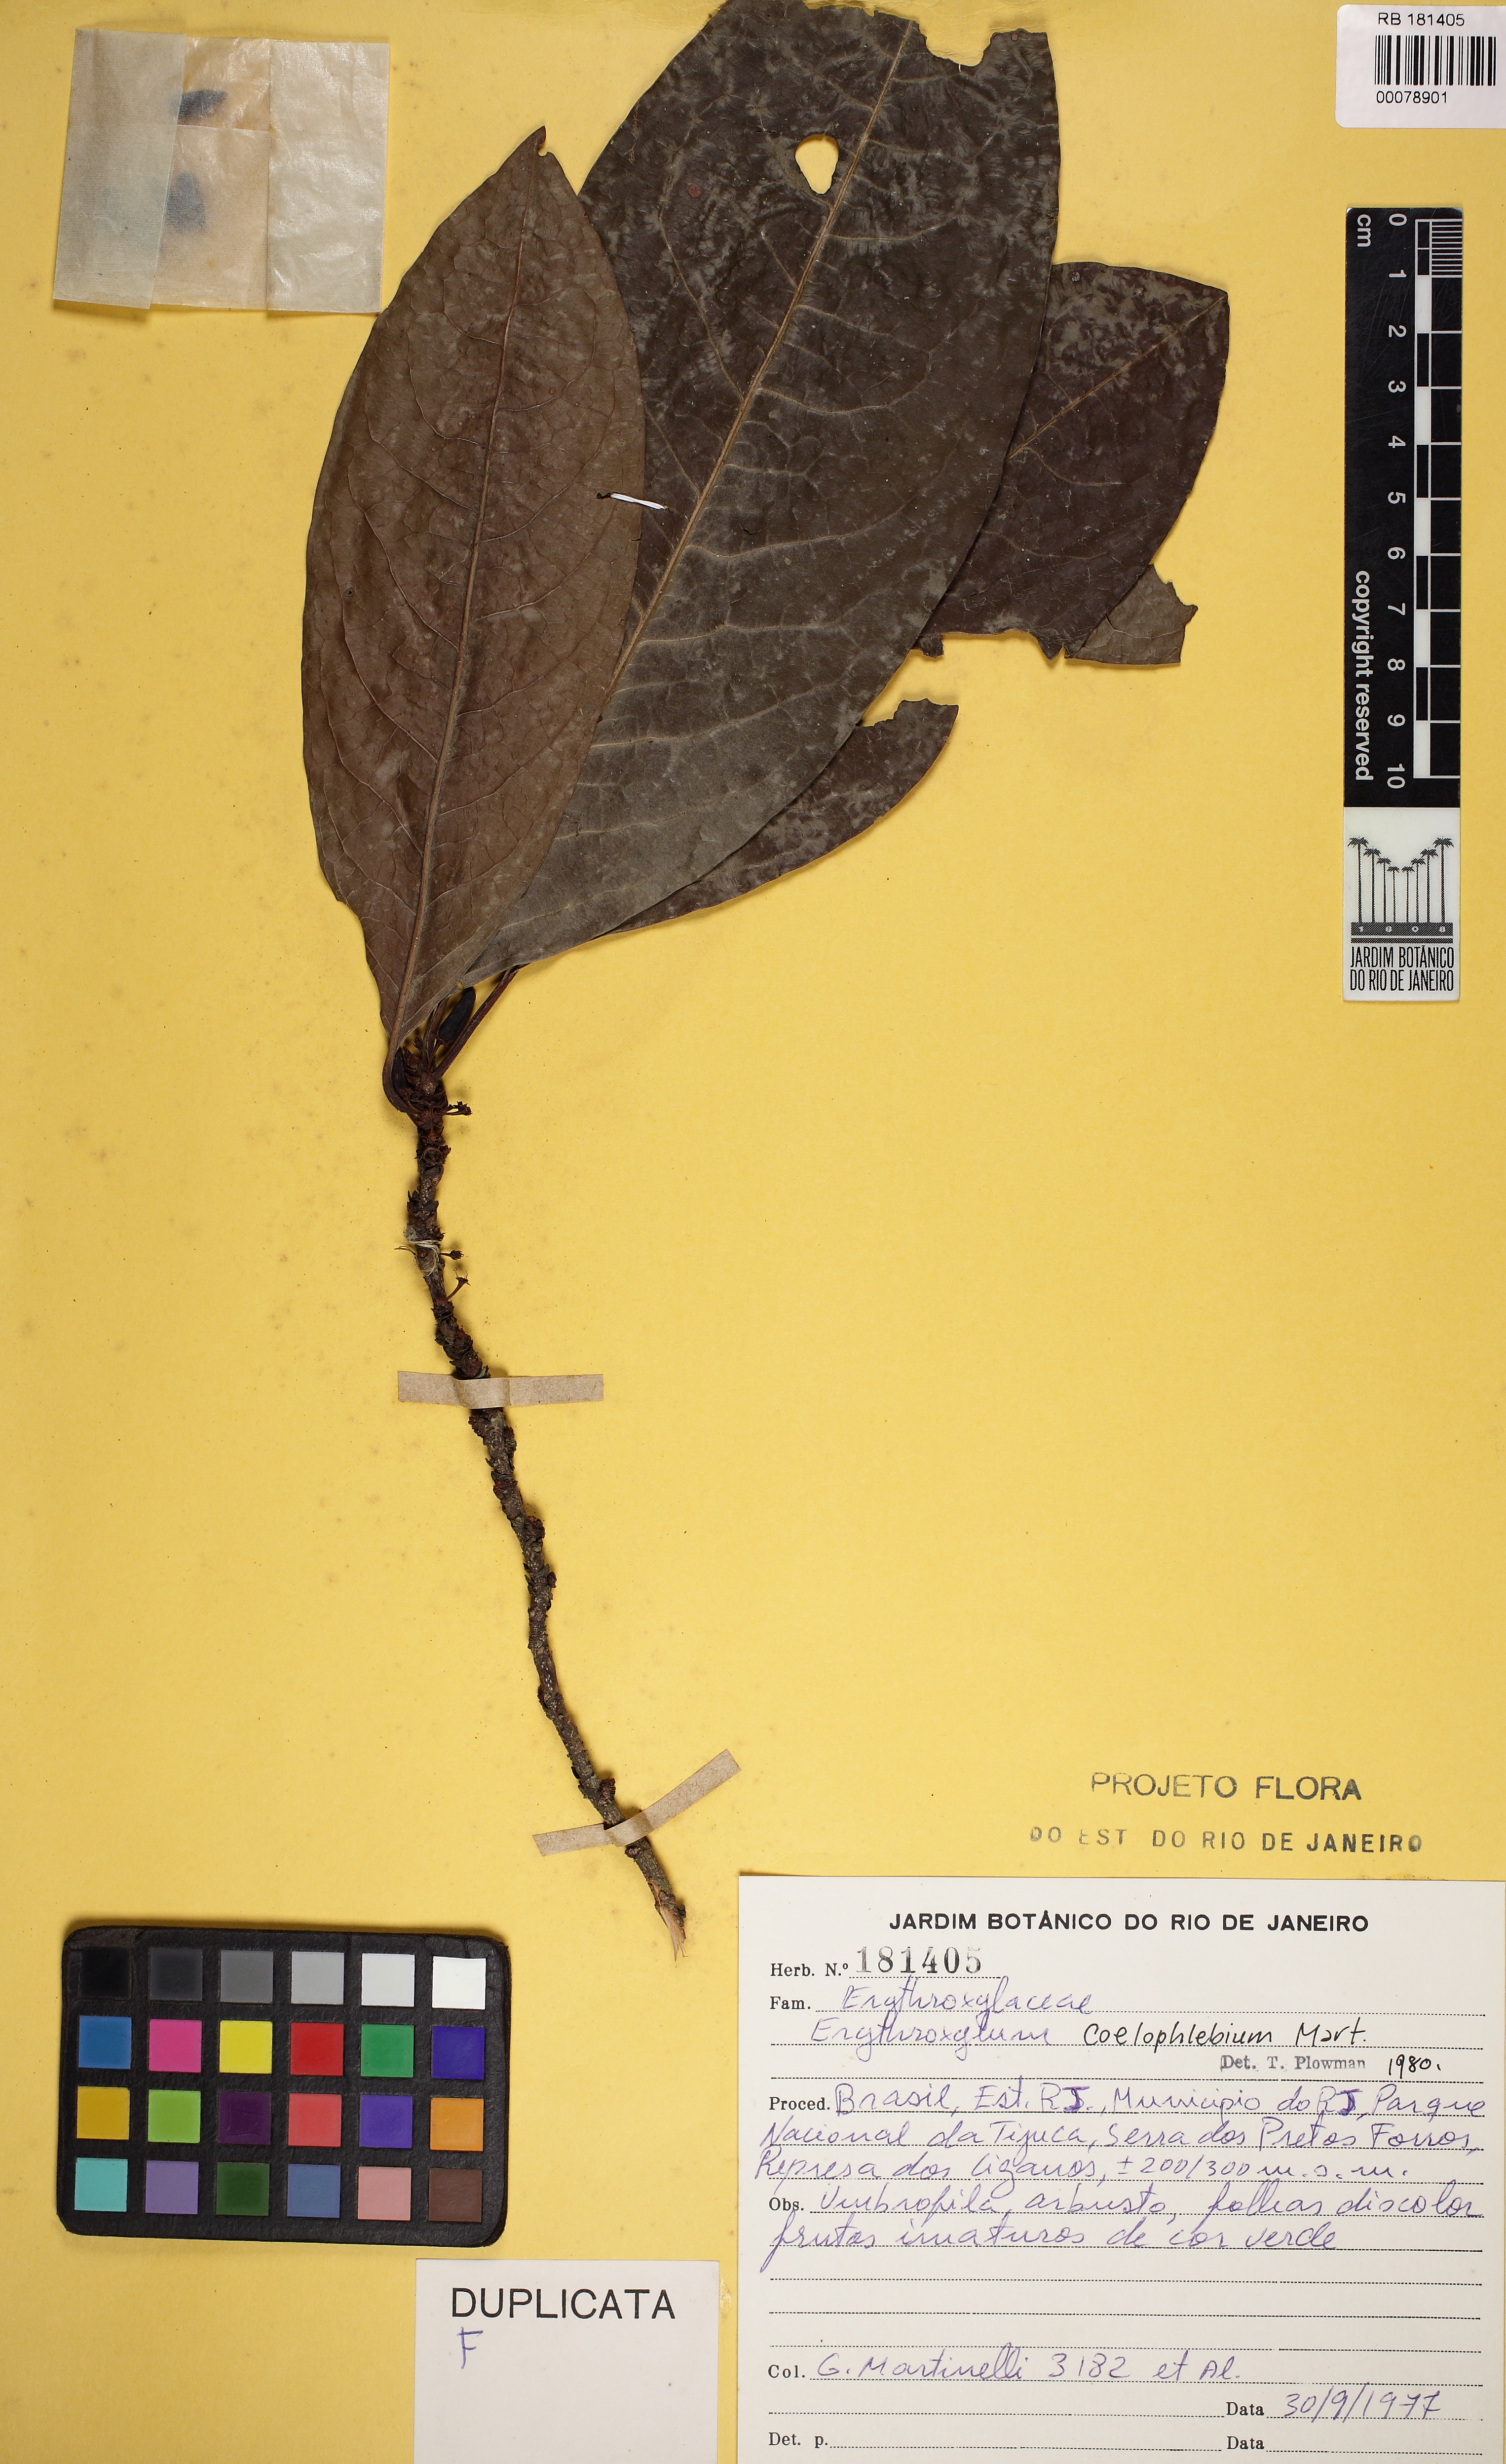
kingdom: Plantae
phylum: Tracheophyta
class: Magnoliopsida
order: Malpighiales
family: Erythroxylaceae
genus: Erythroxylum
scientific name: Erythroxylum coelophlebium
